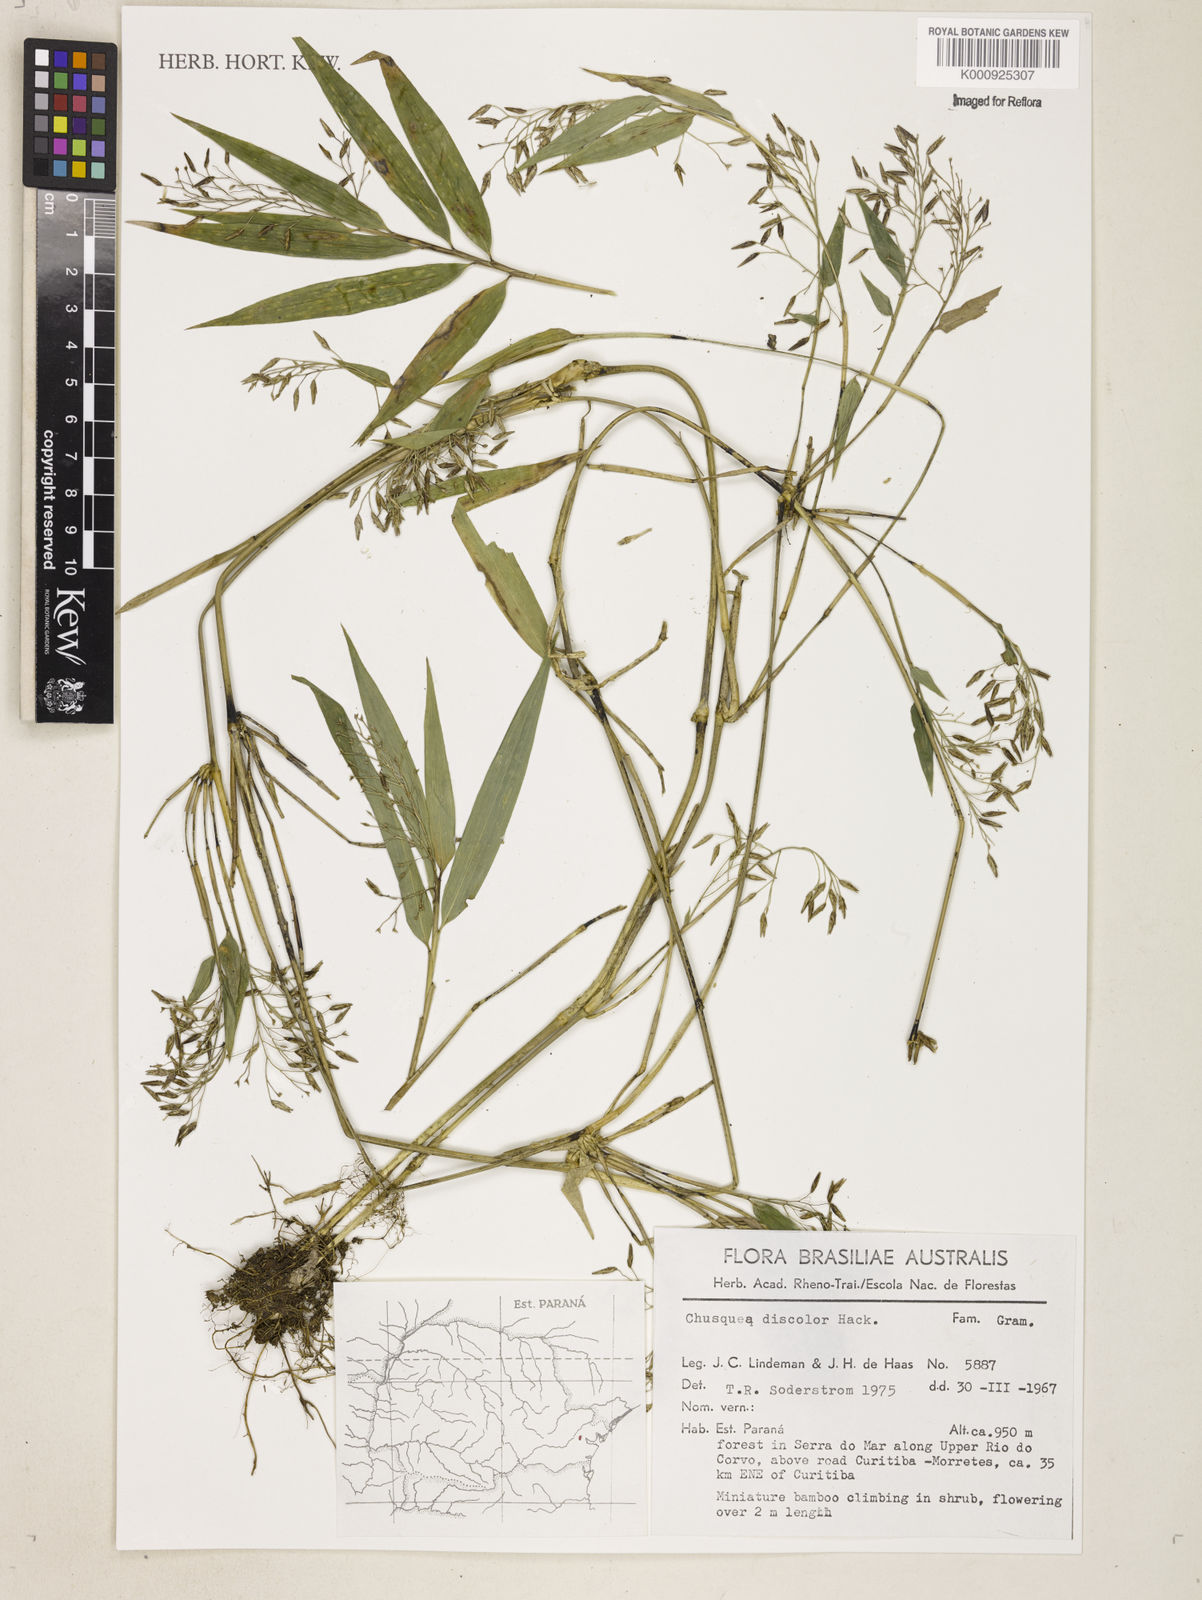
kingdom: Plantae
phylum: Tracheophyta
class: Liliopsida
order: Poales
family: Poaceae
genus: Chusquea
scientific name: Chusquea oligophylla
